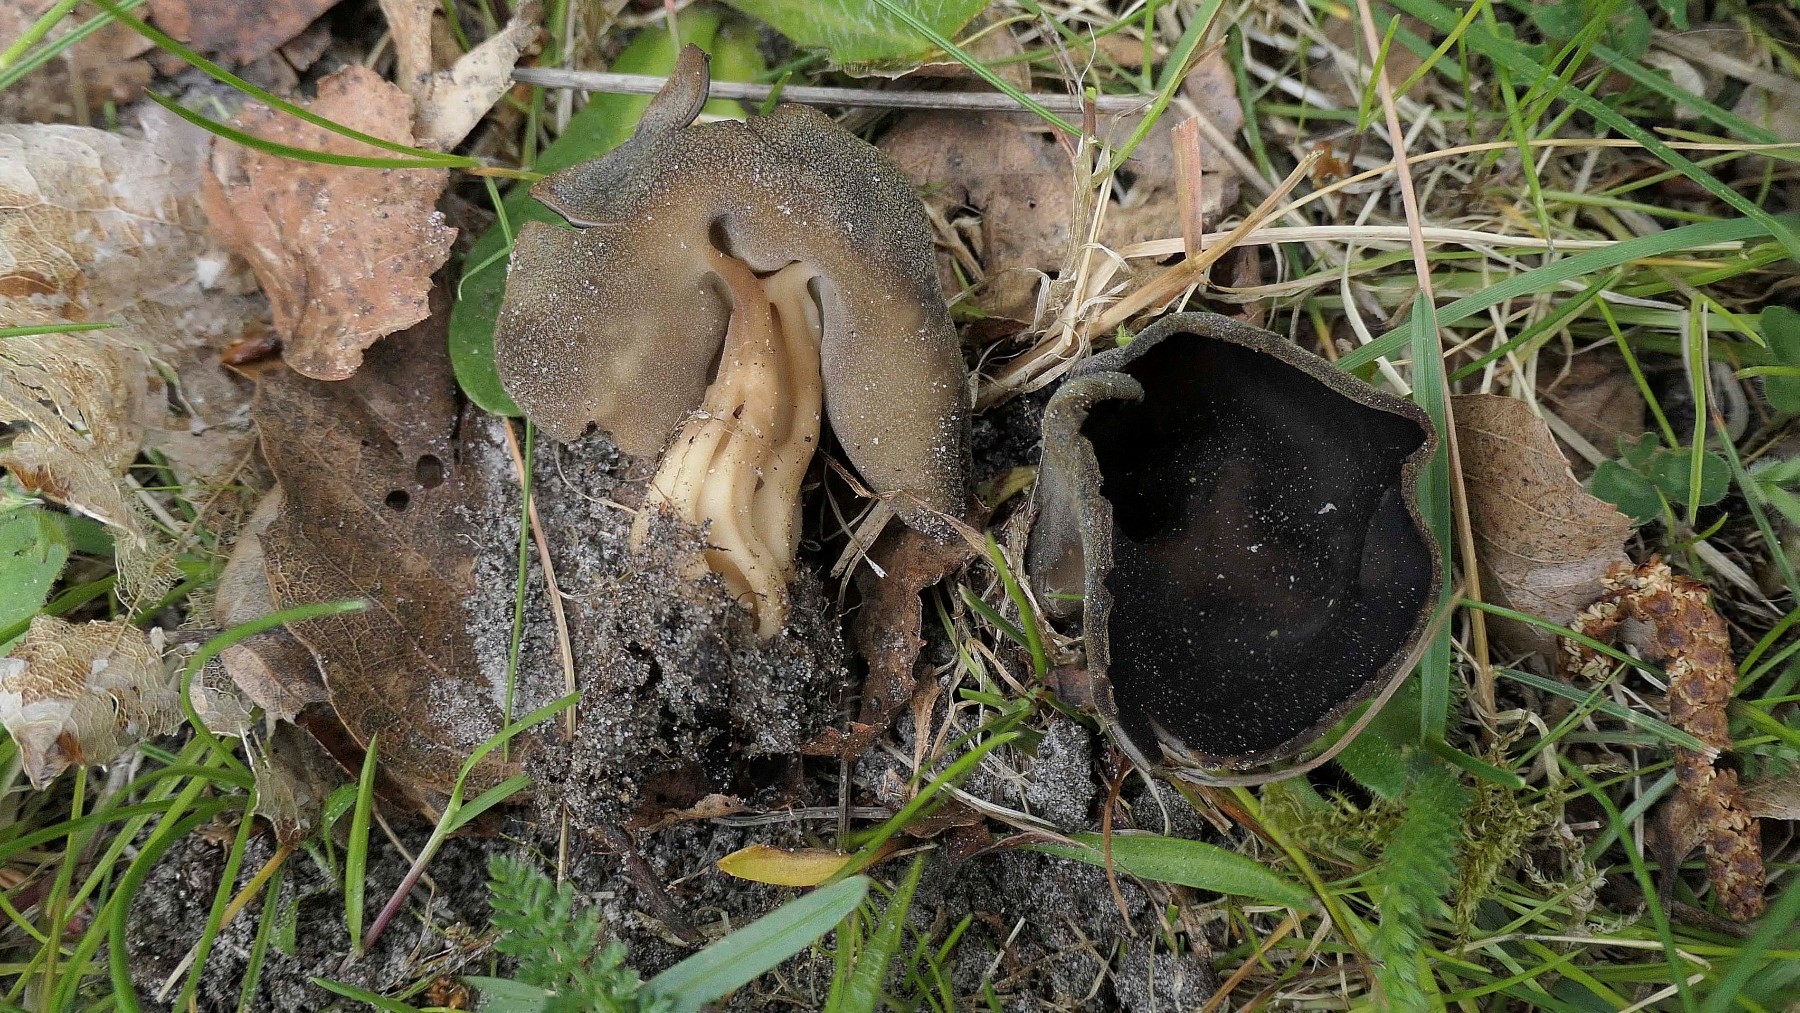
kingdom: Fungi
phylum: Ascomycota
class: Pezizomycetes
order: Pezizales
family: Helvellaceae
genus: Helvella
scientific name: Helvella solitaria
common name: Quélets foldhat
